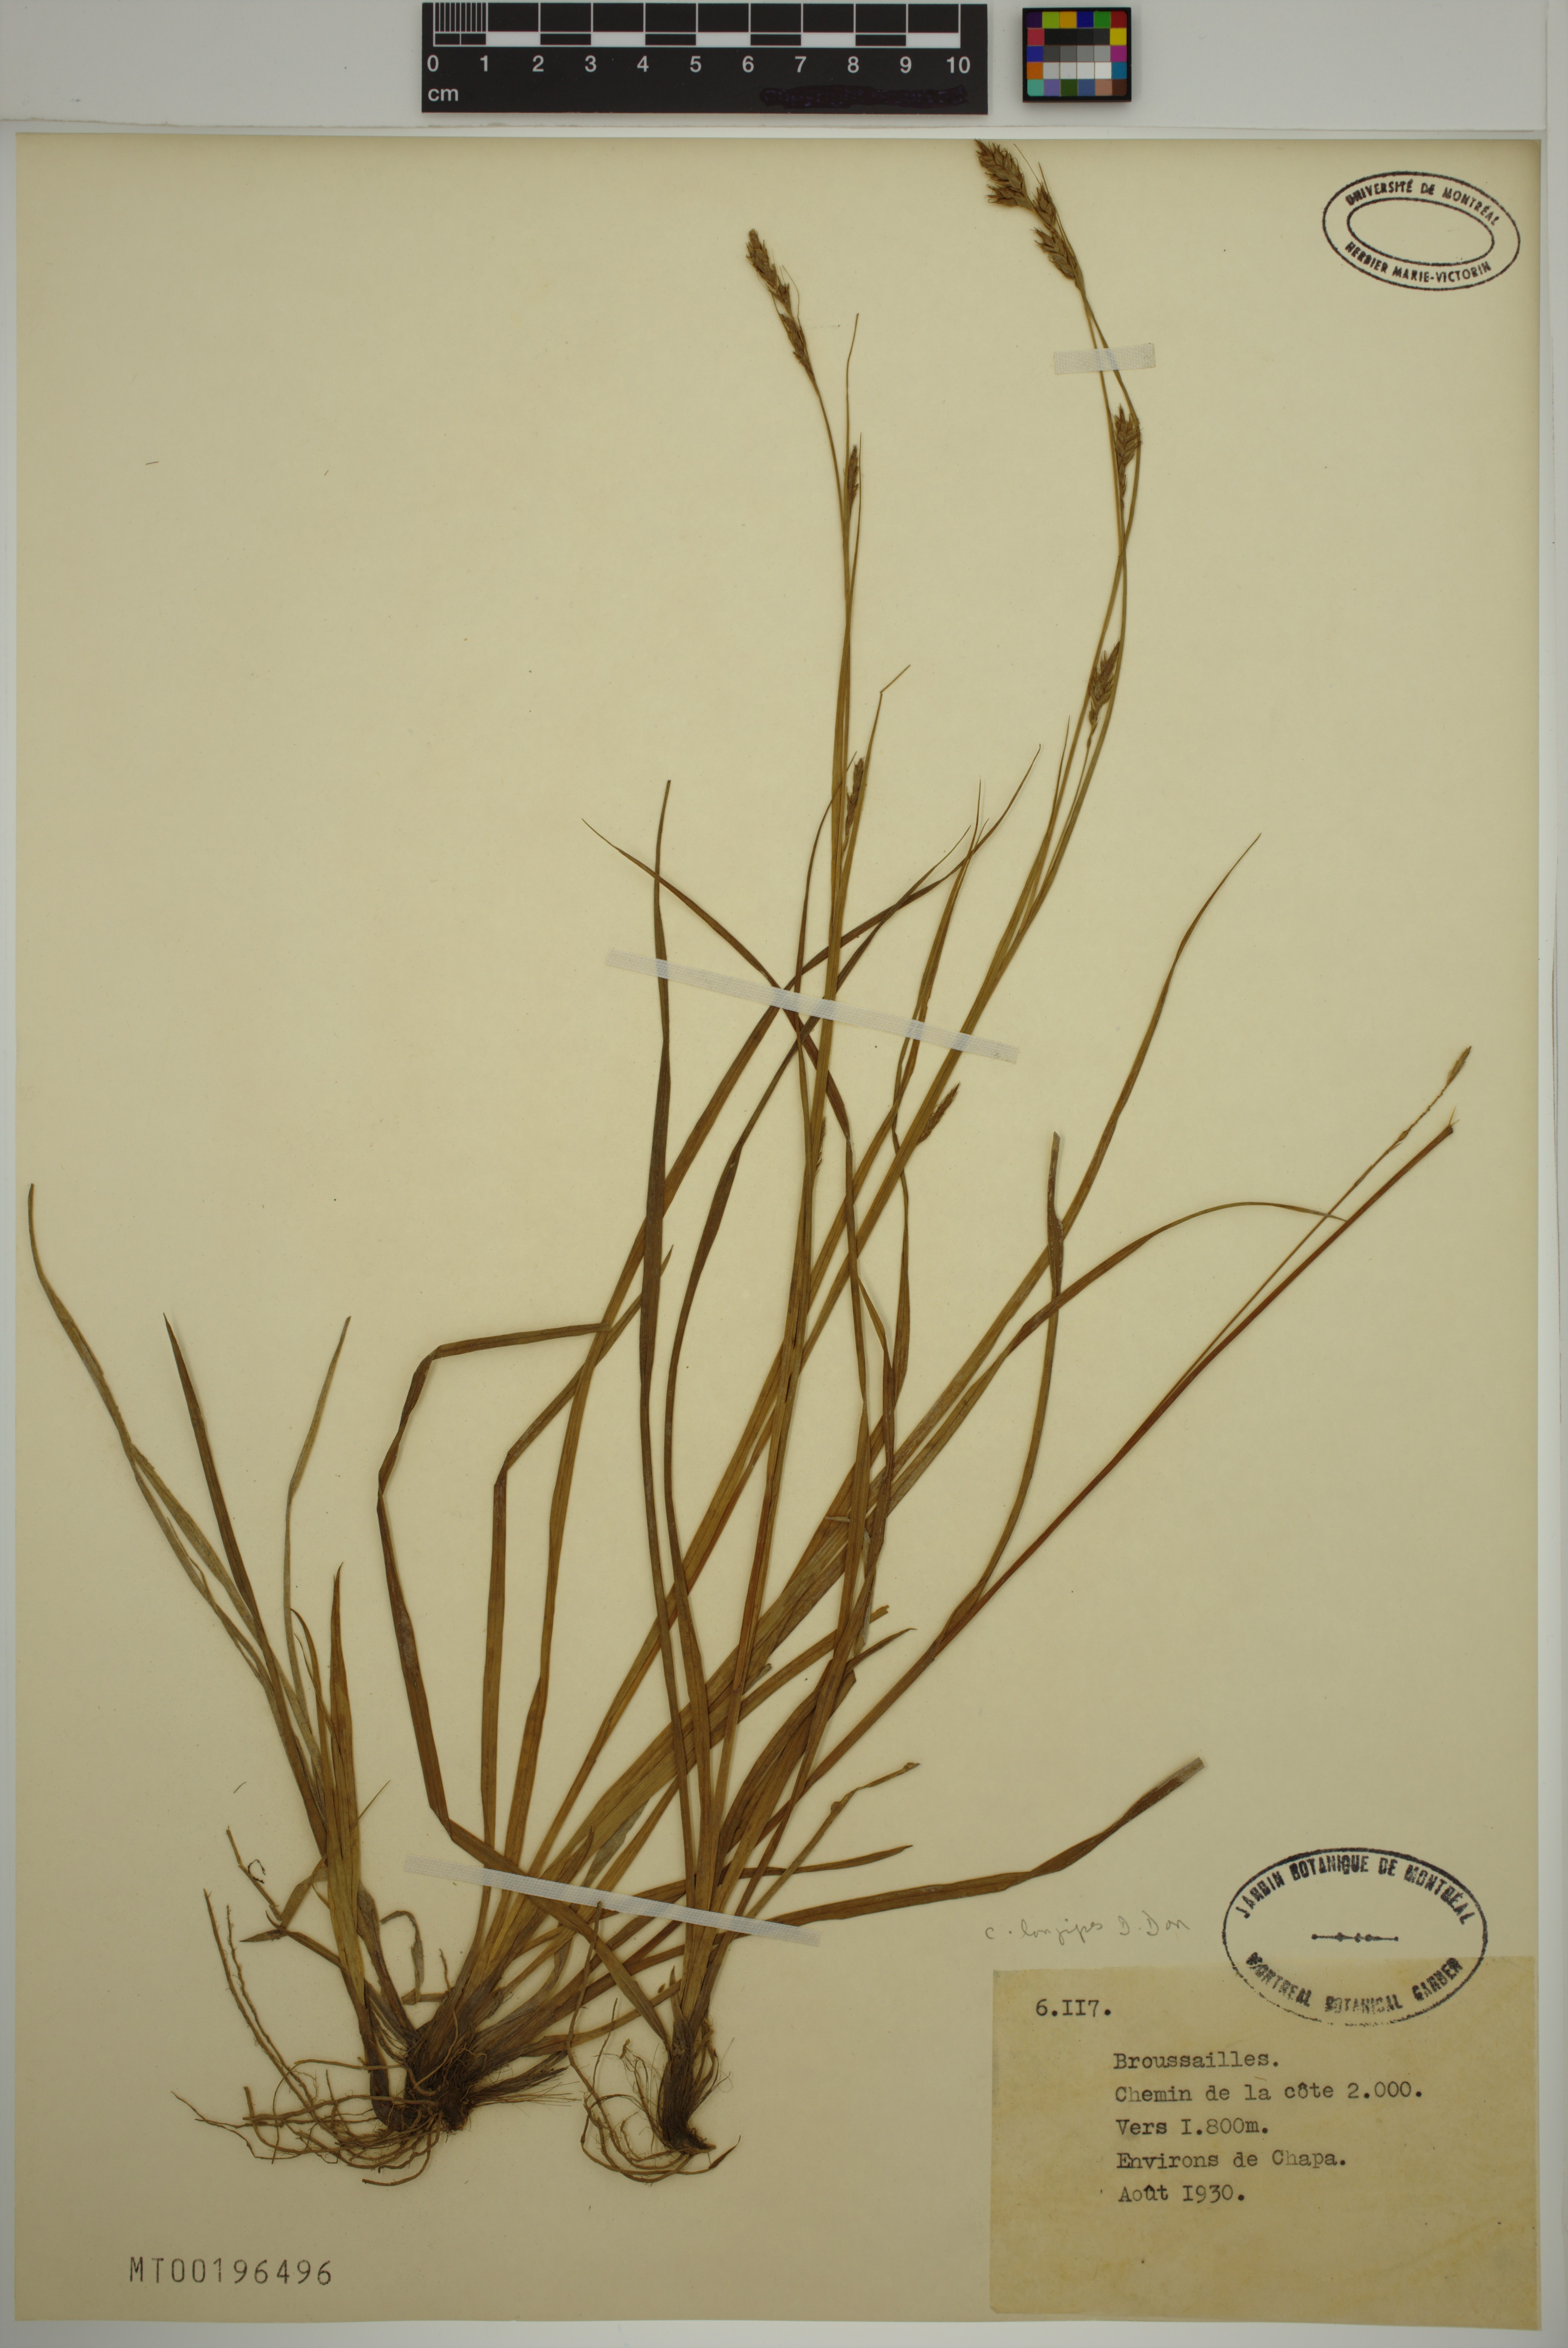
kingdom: Plantae
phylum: Tracheophyta
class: Liliopsida
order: Poales
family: Cyperaceae
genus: Carex
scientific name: Carex longipes
